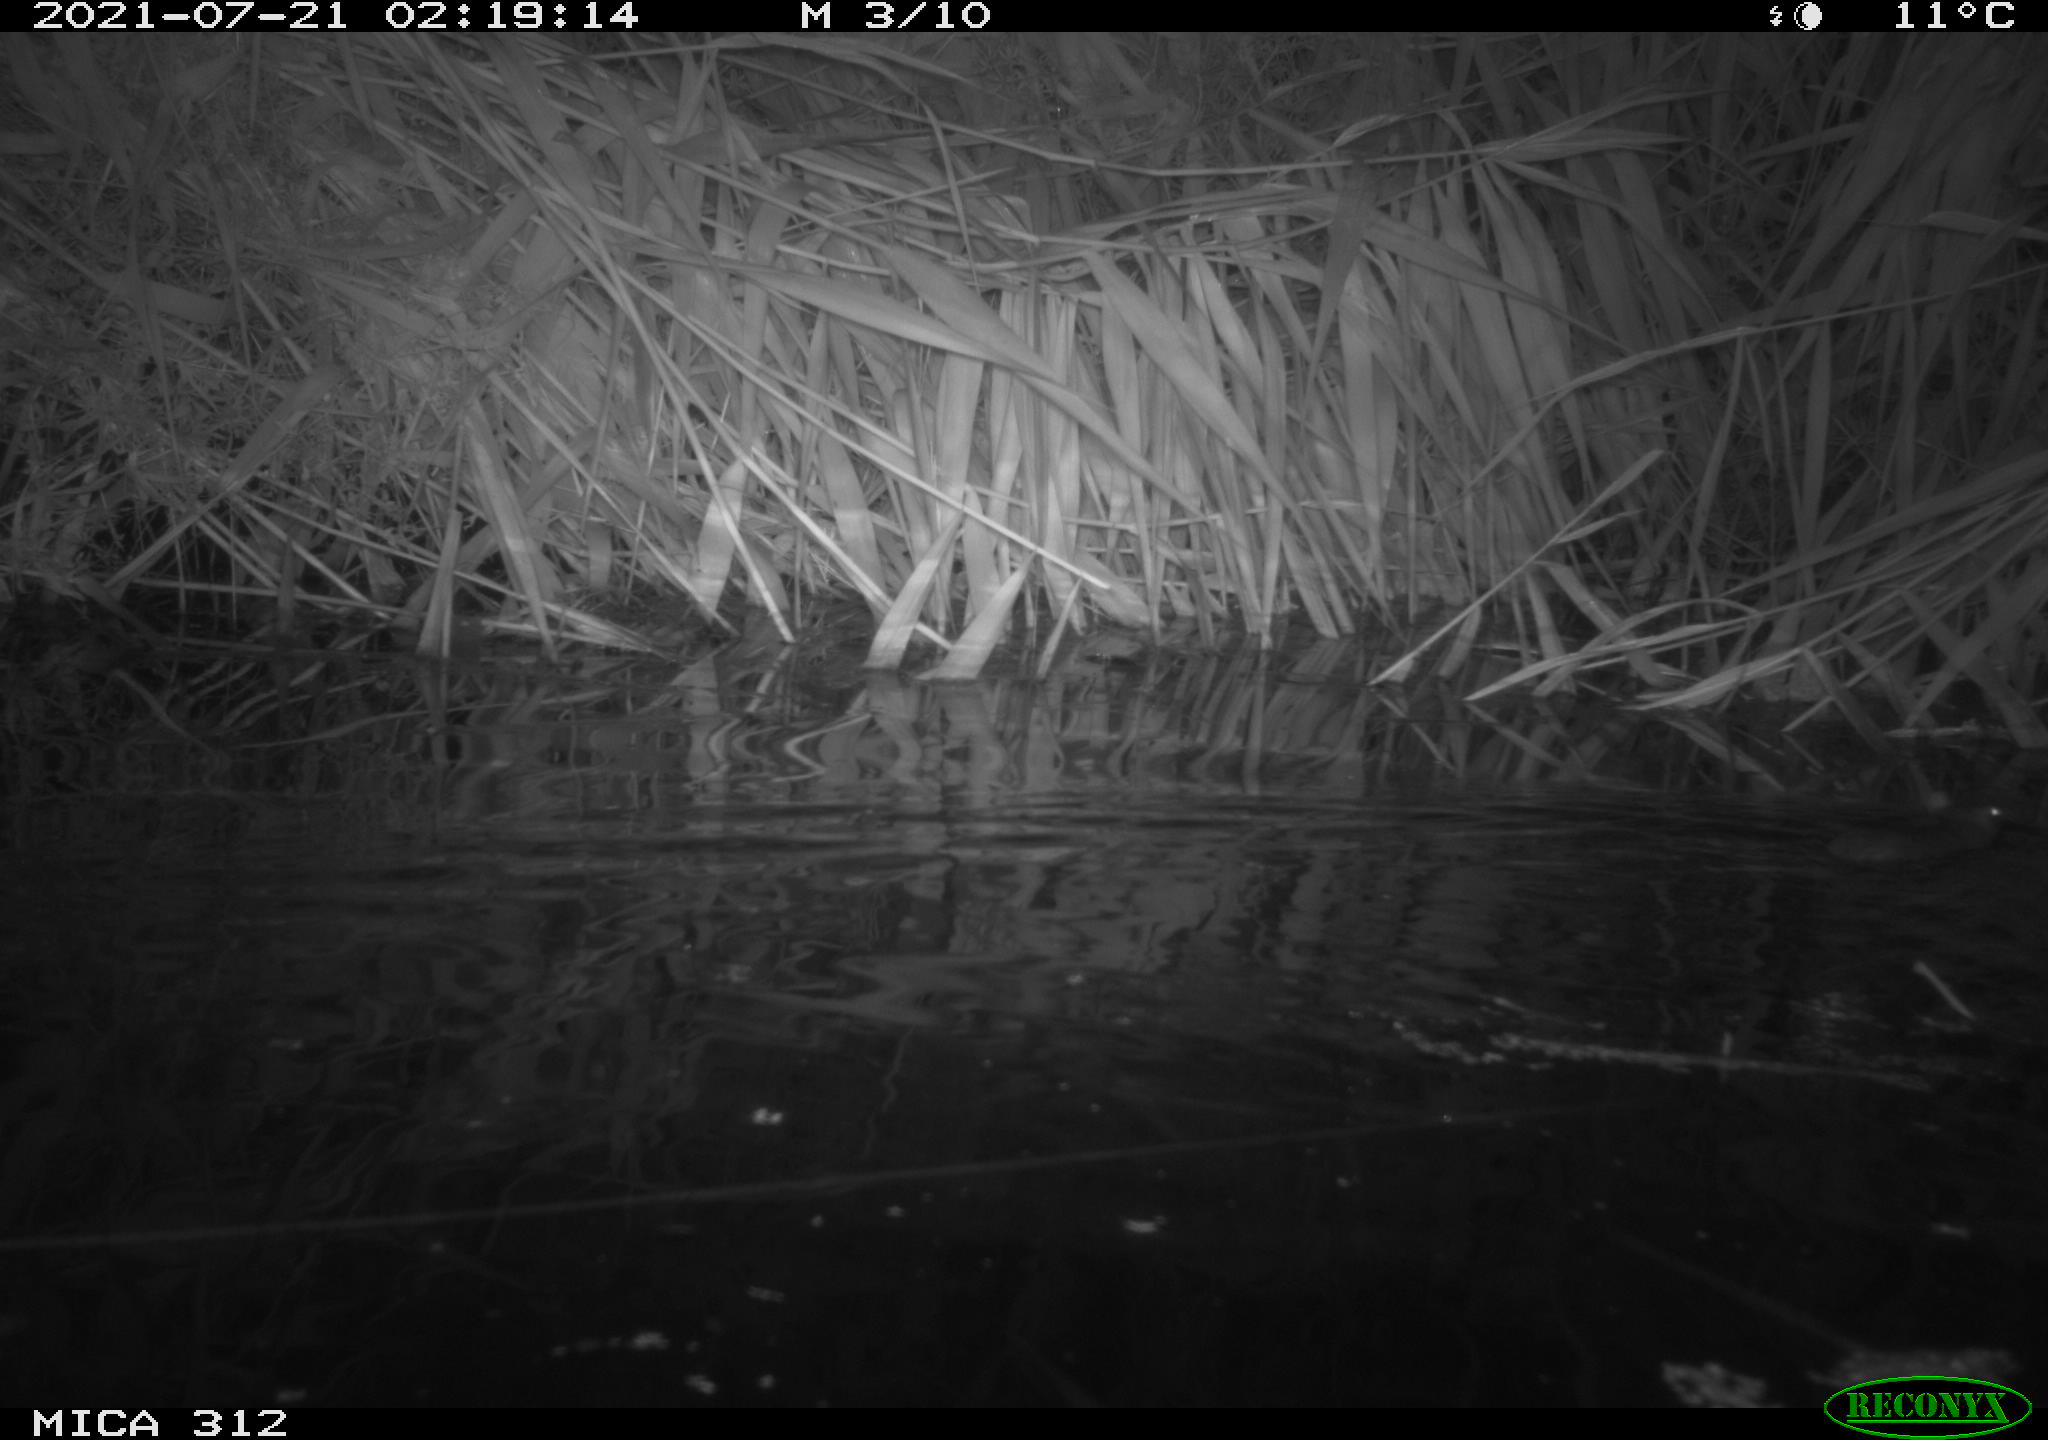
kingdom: Animalia
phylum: Chordata
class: Mammalia
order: Rodentia
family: Muridae
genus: Rattus
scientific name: Rattus norvegicus
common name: Brown rat
